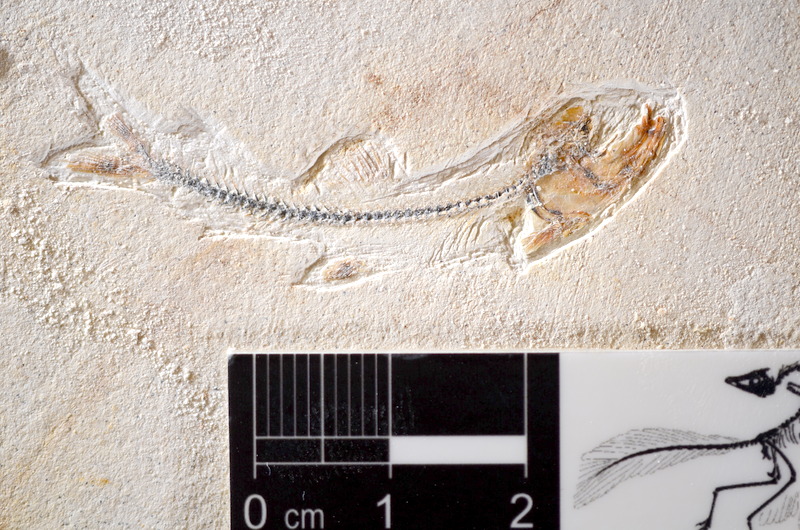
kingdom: Animalia
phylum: Chordata
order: Salmoniformes
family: Orthogonikleithridae
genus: Orthogonikleithrus
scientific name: Orthogonikleithrus hoelli
